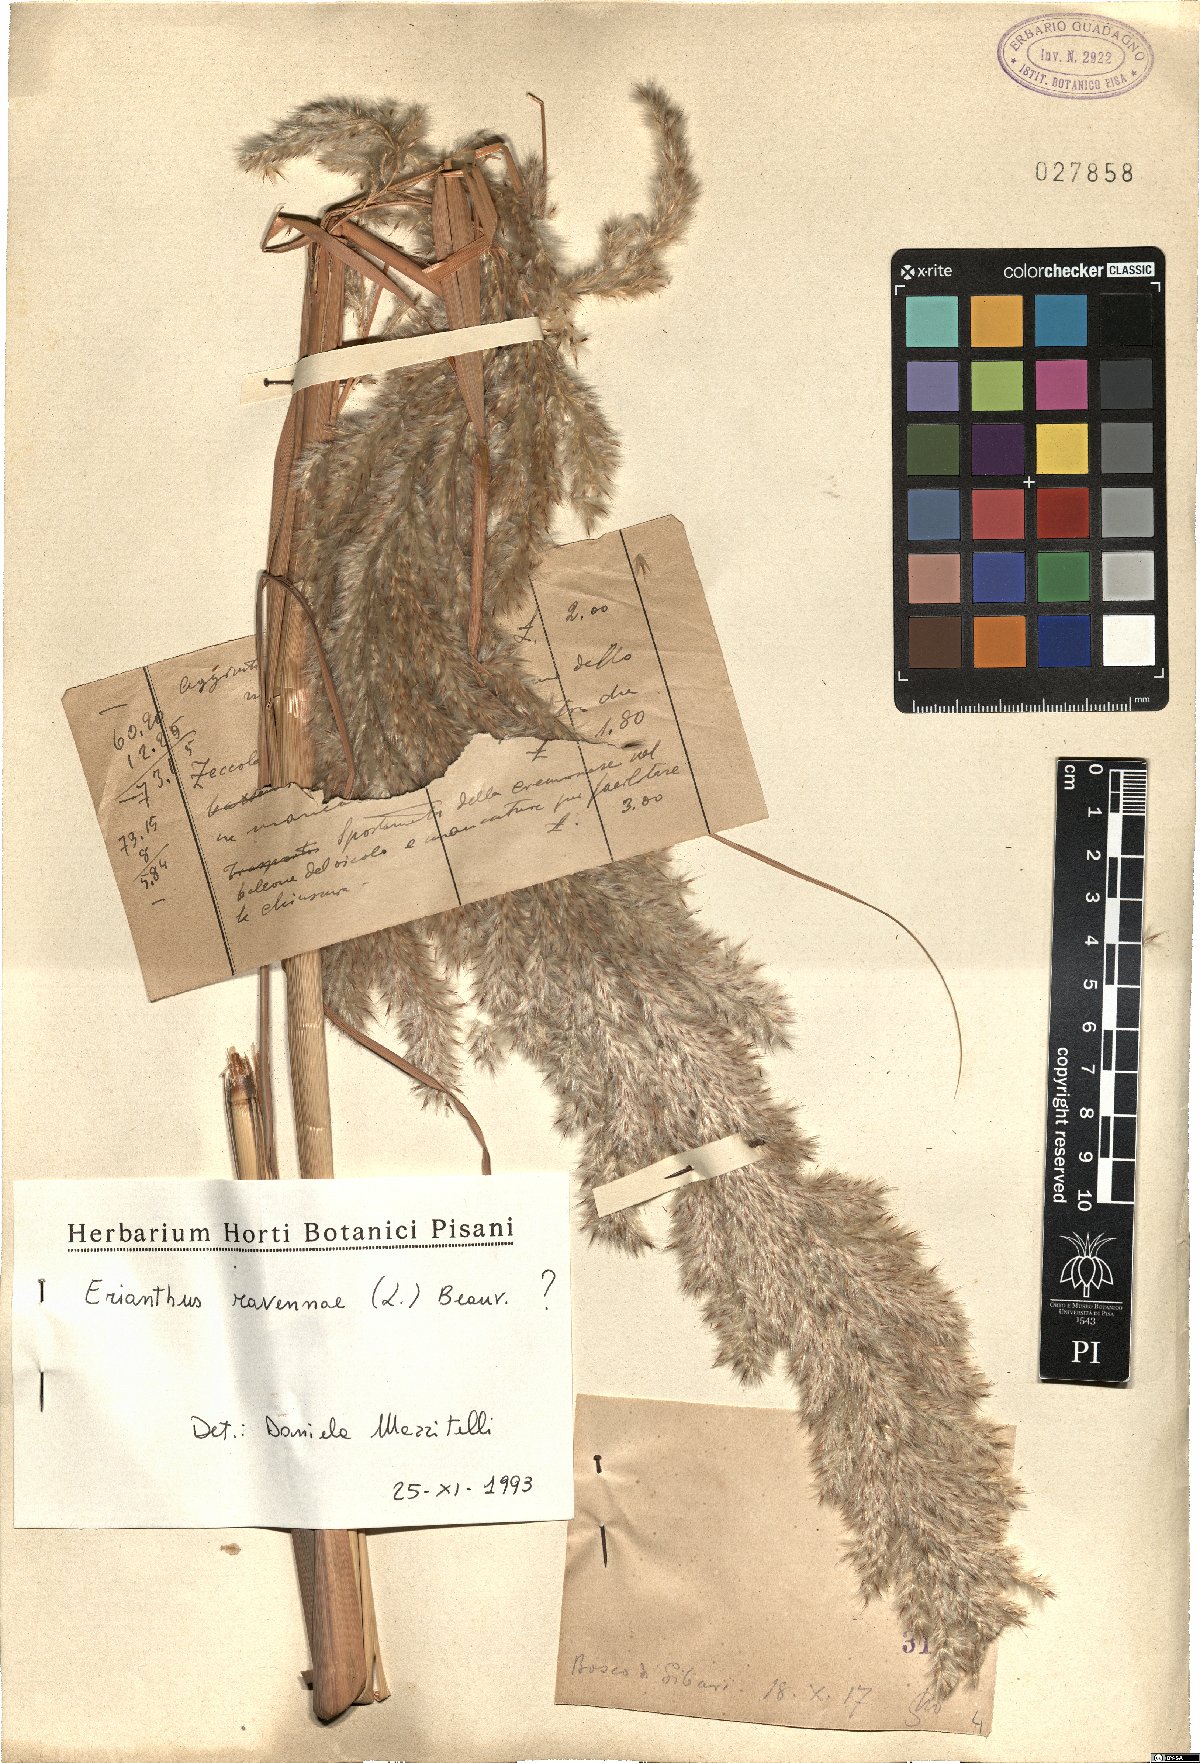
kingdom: Plantae
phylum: Tracheophyta
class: Liliopsida
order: Poales
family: Poaceae
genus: Tripidium
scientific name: Tripidium ravennae
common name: Ravenna grass
